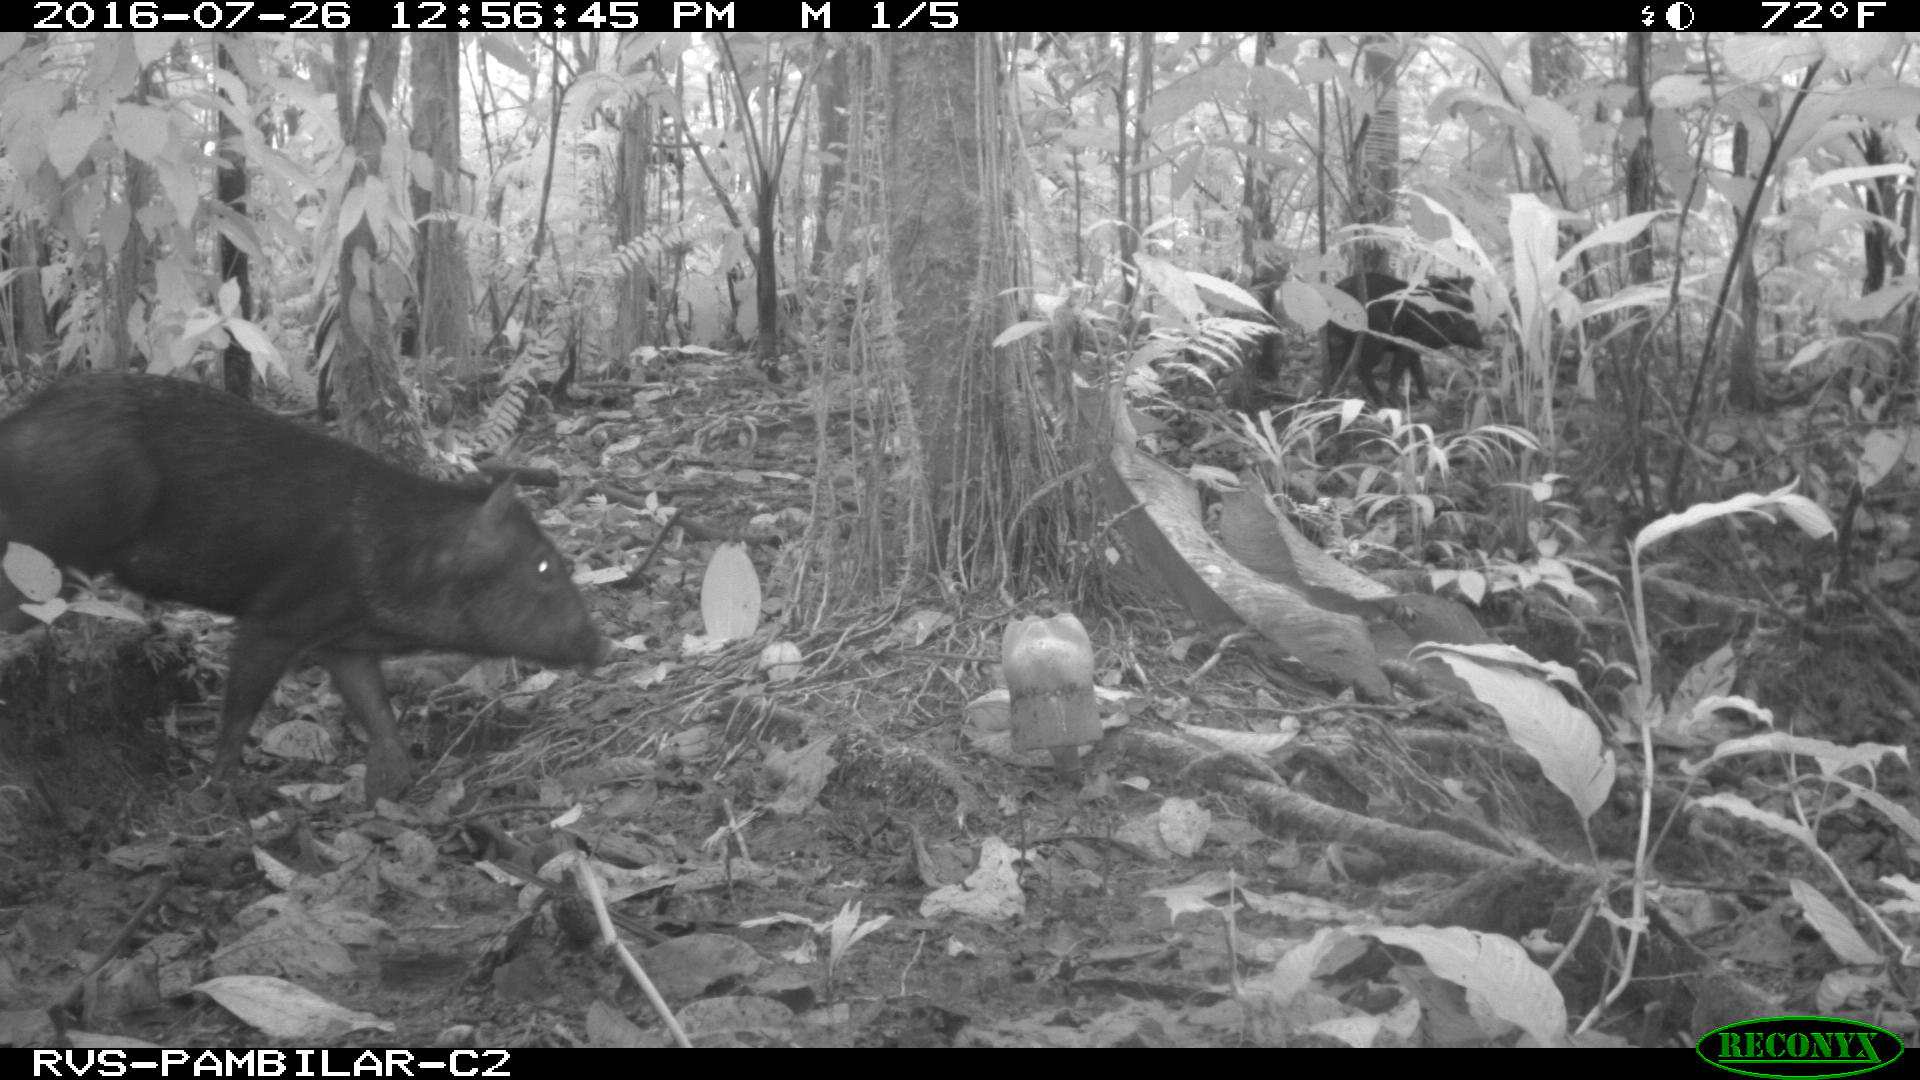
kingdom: Animalia
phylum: Chordata
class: Mammalia
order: Artiodactyla
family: Tayassuidae
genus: Pecari
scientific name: Pecari tajacu
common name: Collared peccary
